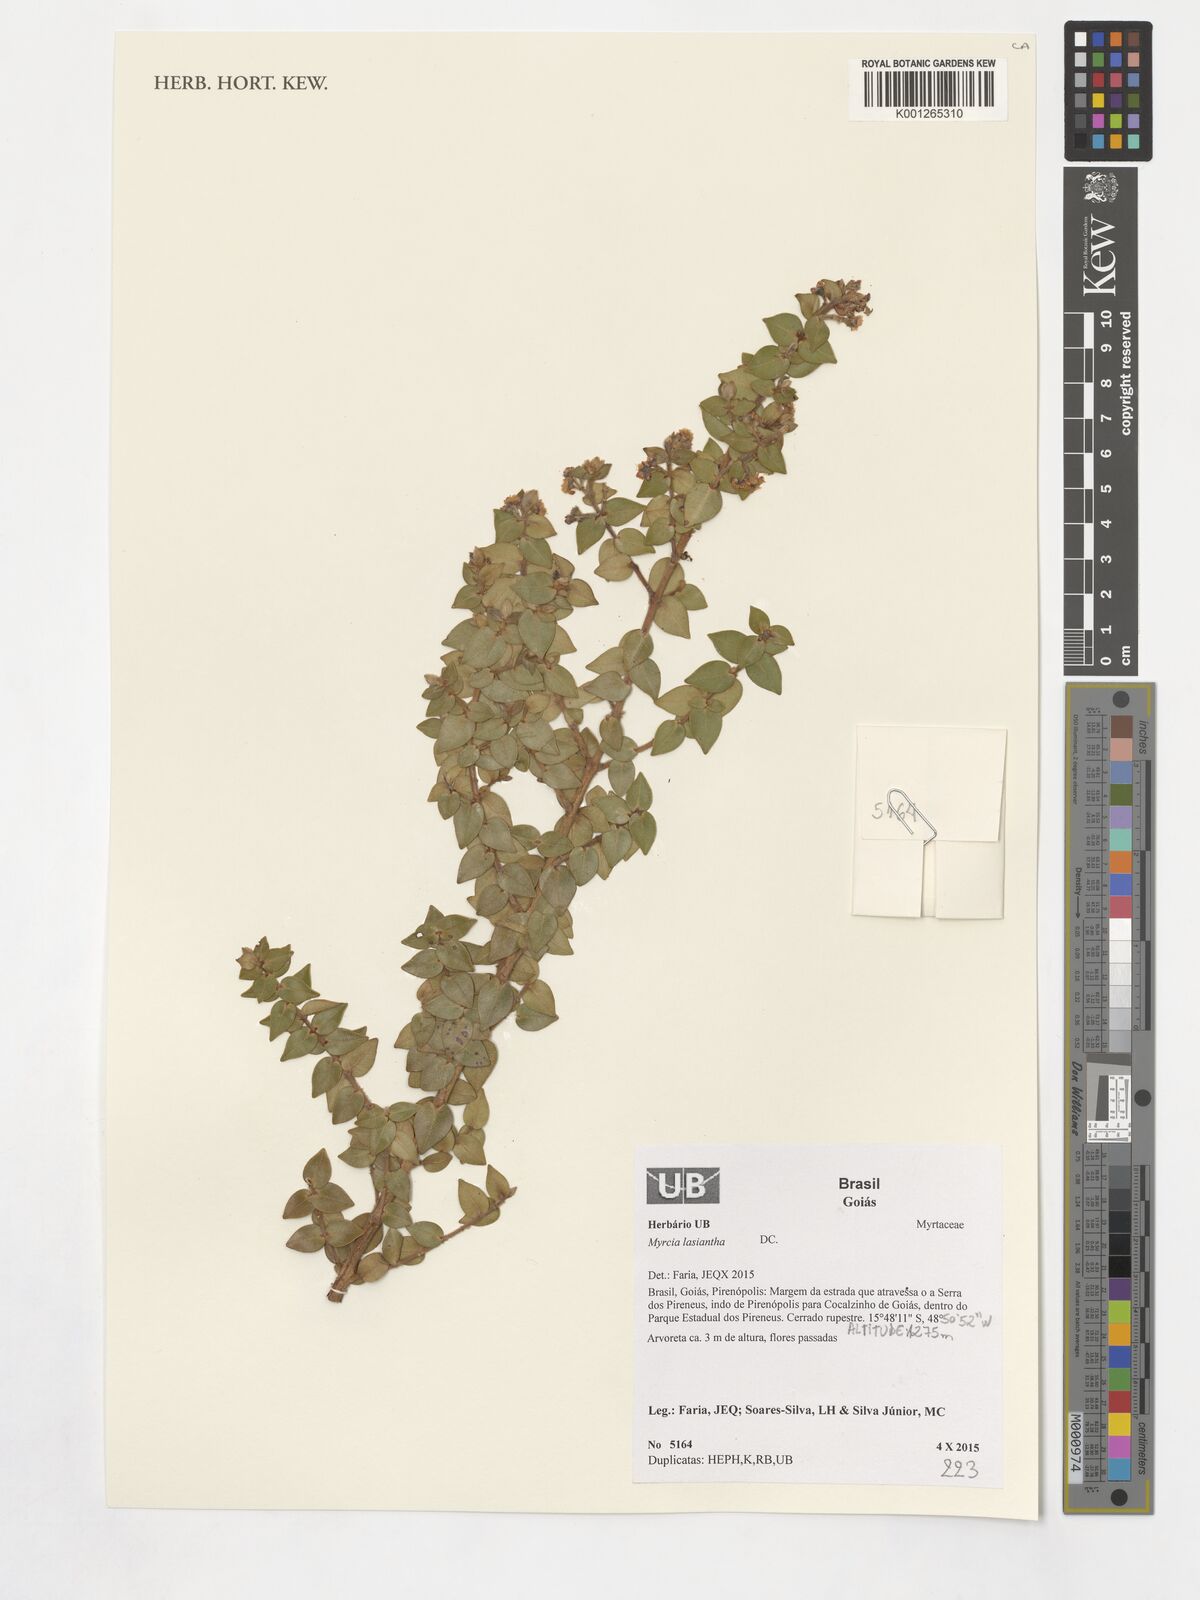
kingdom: Plantae
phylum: Tracheophyta
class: Magnoliopsida
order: Myrtales
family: Myrtaceae
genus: Myrcia
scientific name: Myrcia lasiantha
